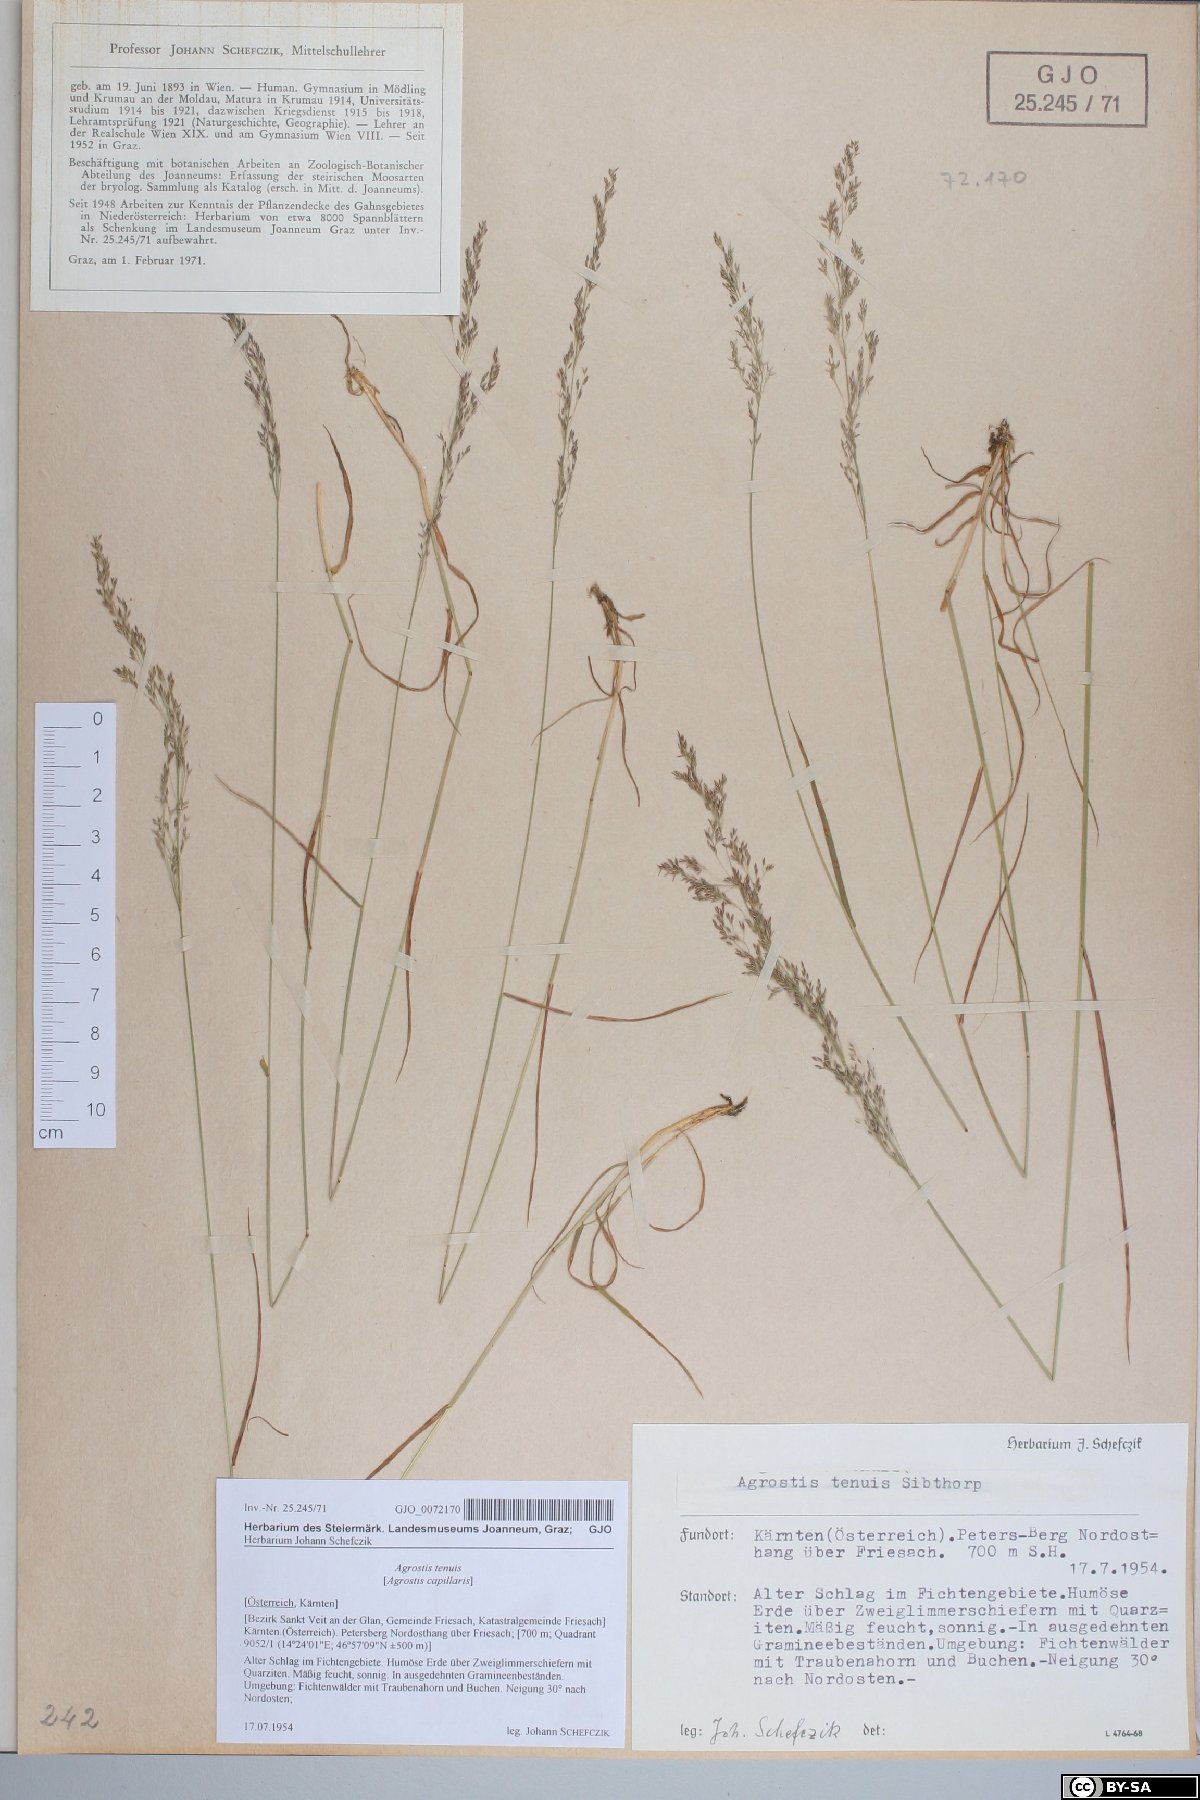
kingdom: Plantae
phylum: Tracheophyta
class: Liliopsida
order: Poales
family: Poaceae
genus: Agrostis
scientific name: Agrostis capillaris
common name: Colonial bentgrass
